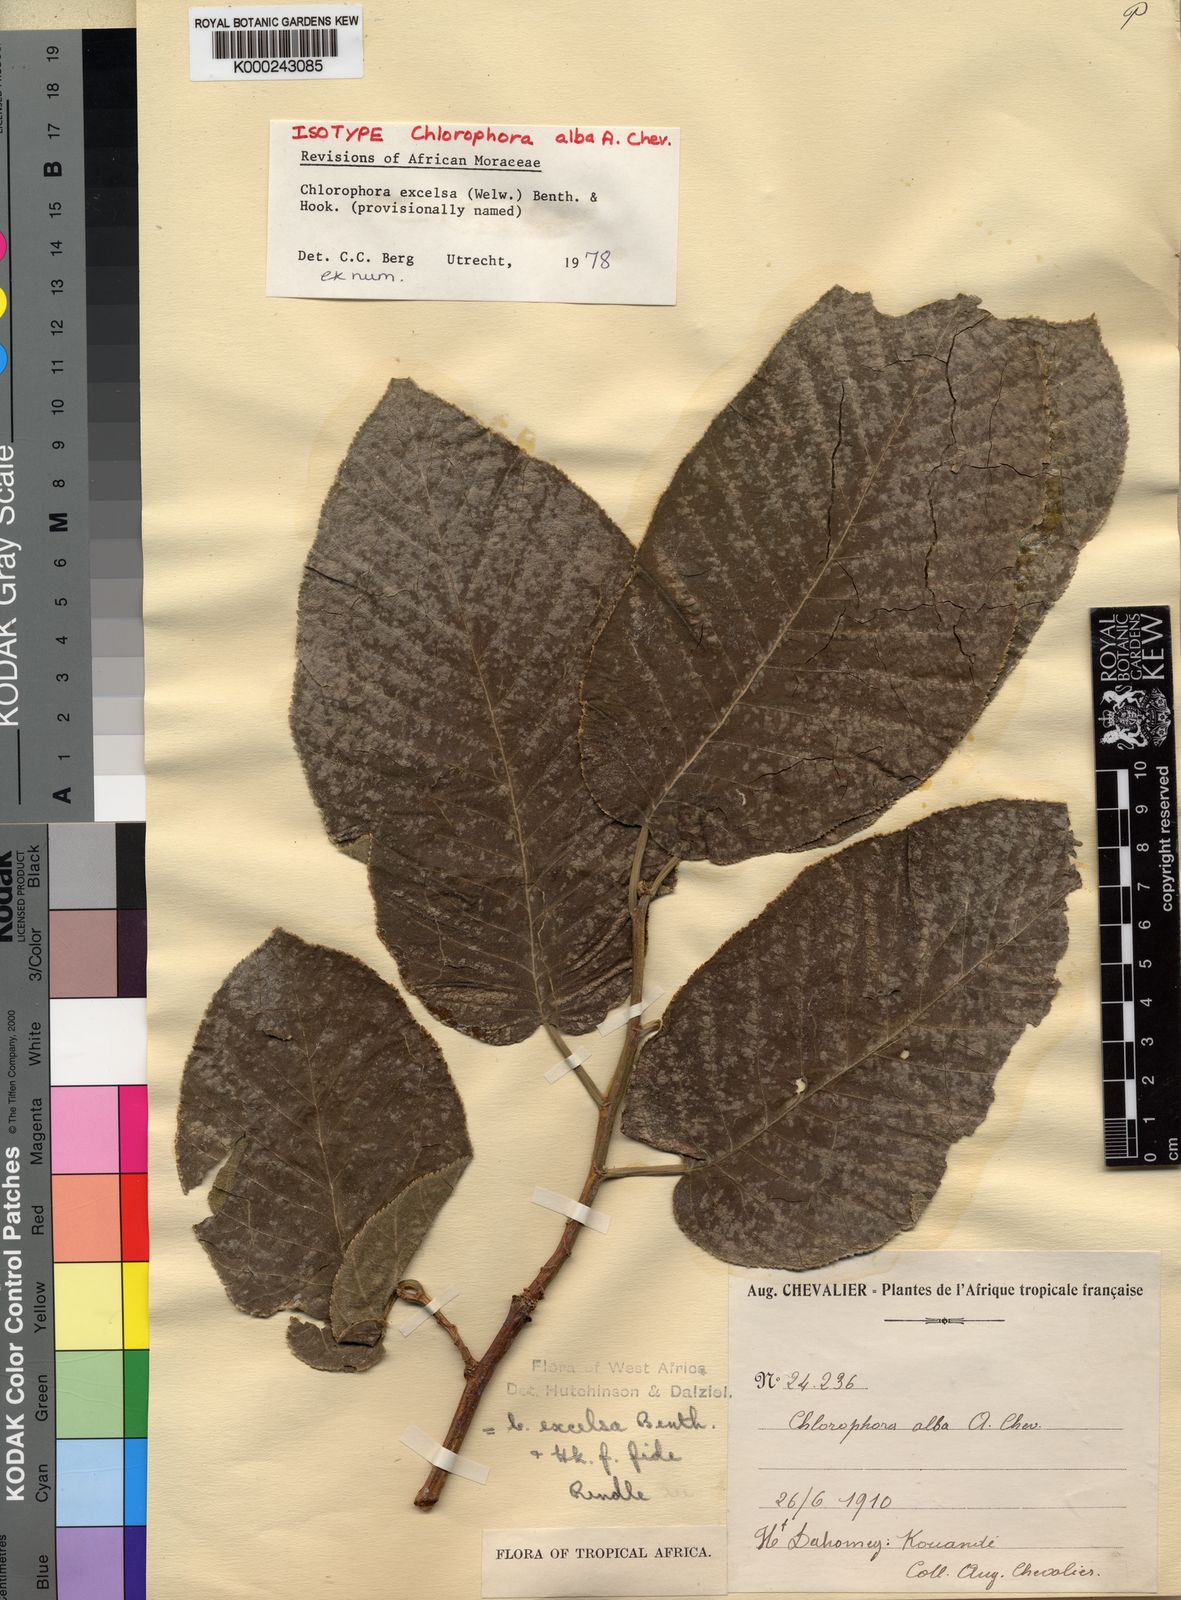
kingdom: Plantae
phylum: Tracheophyta
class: Magnoliopsida
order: Rosales
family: Moraceae
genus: Milicia
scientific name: Milicia excelsa
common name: African teak
